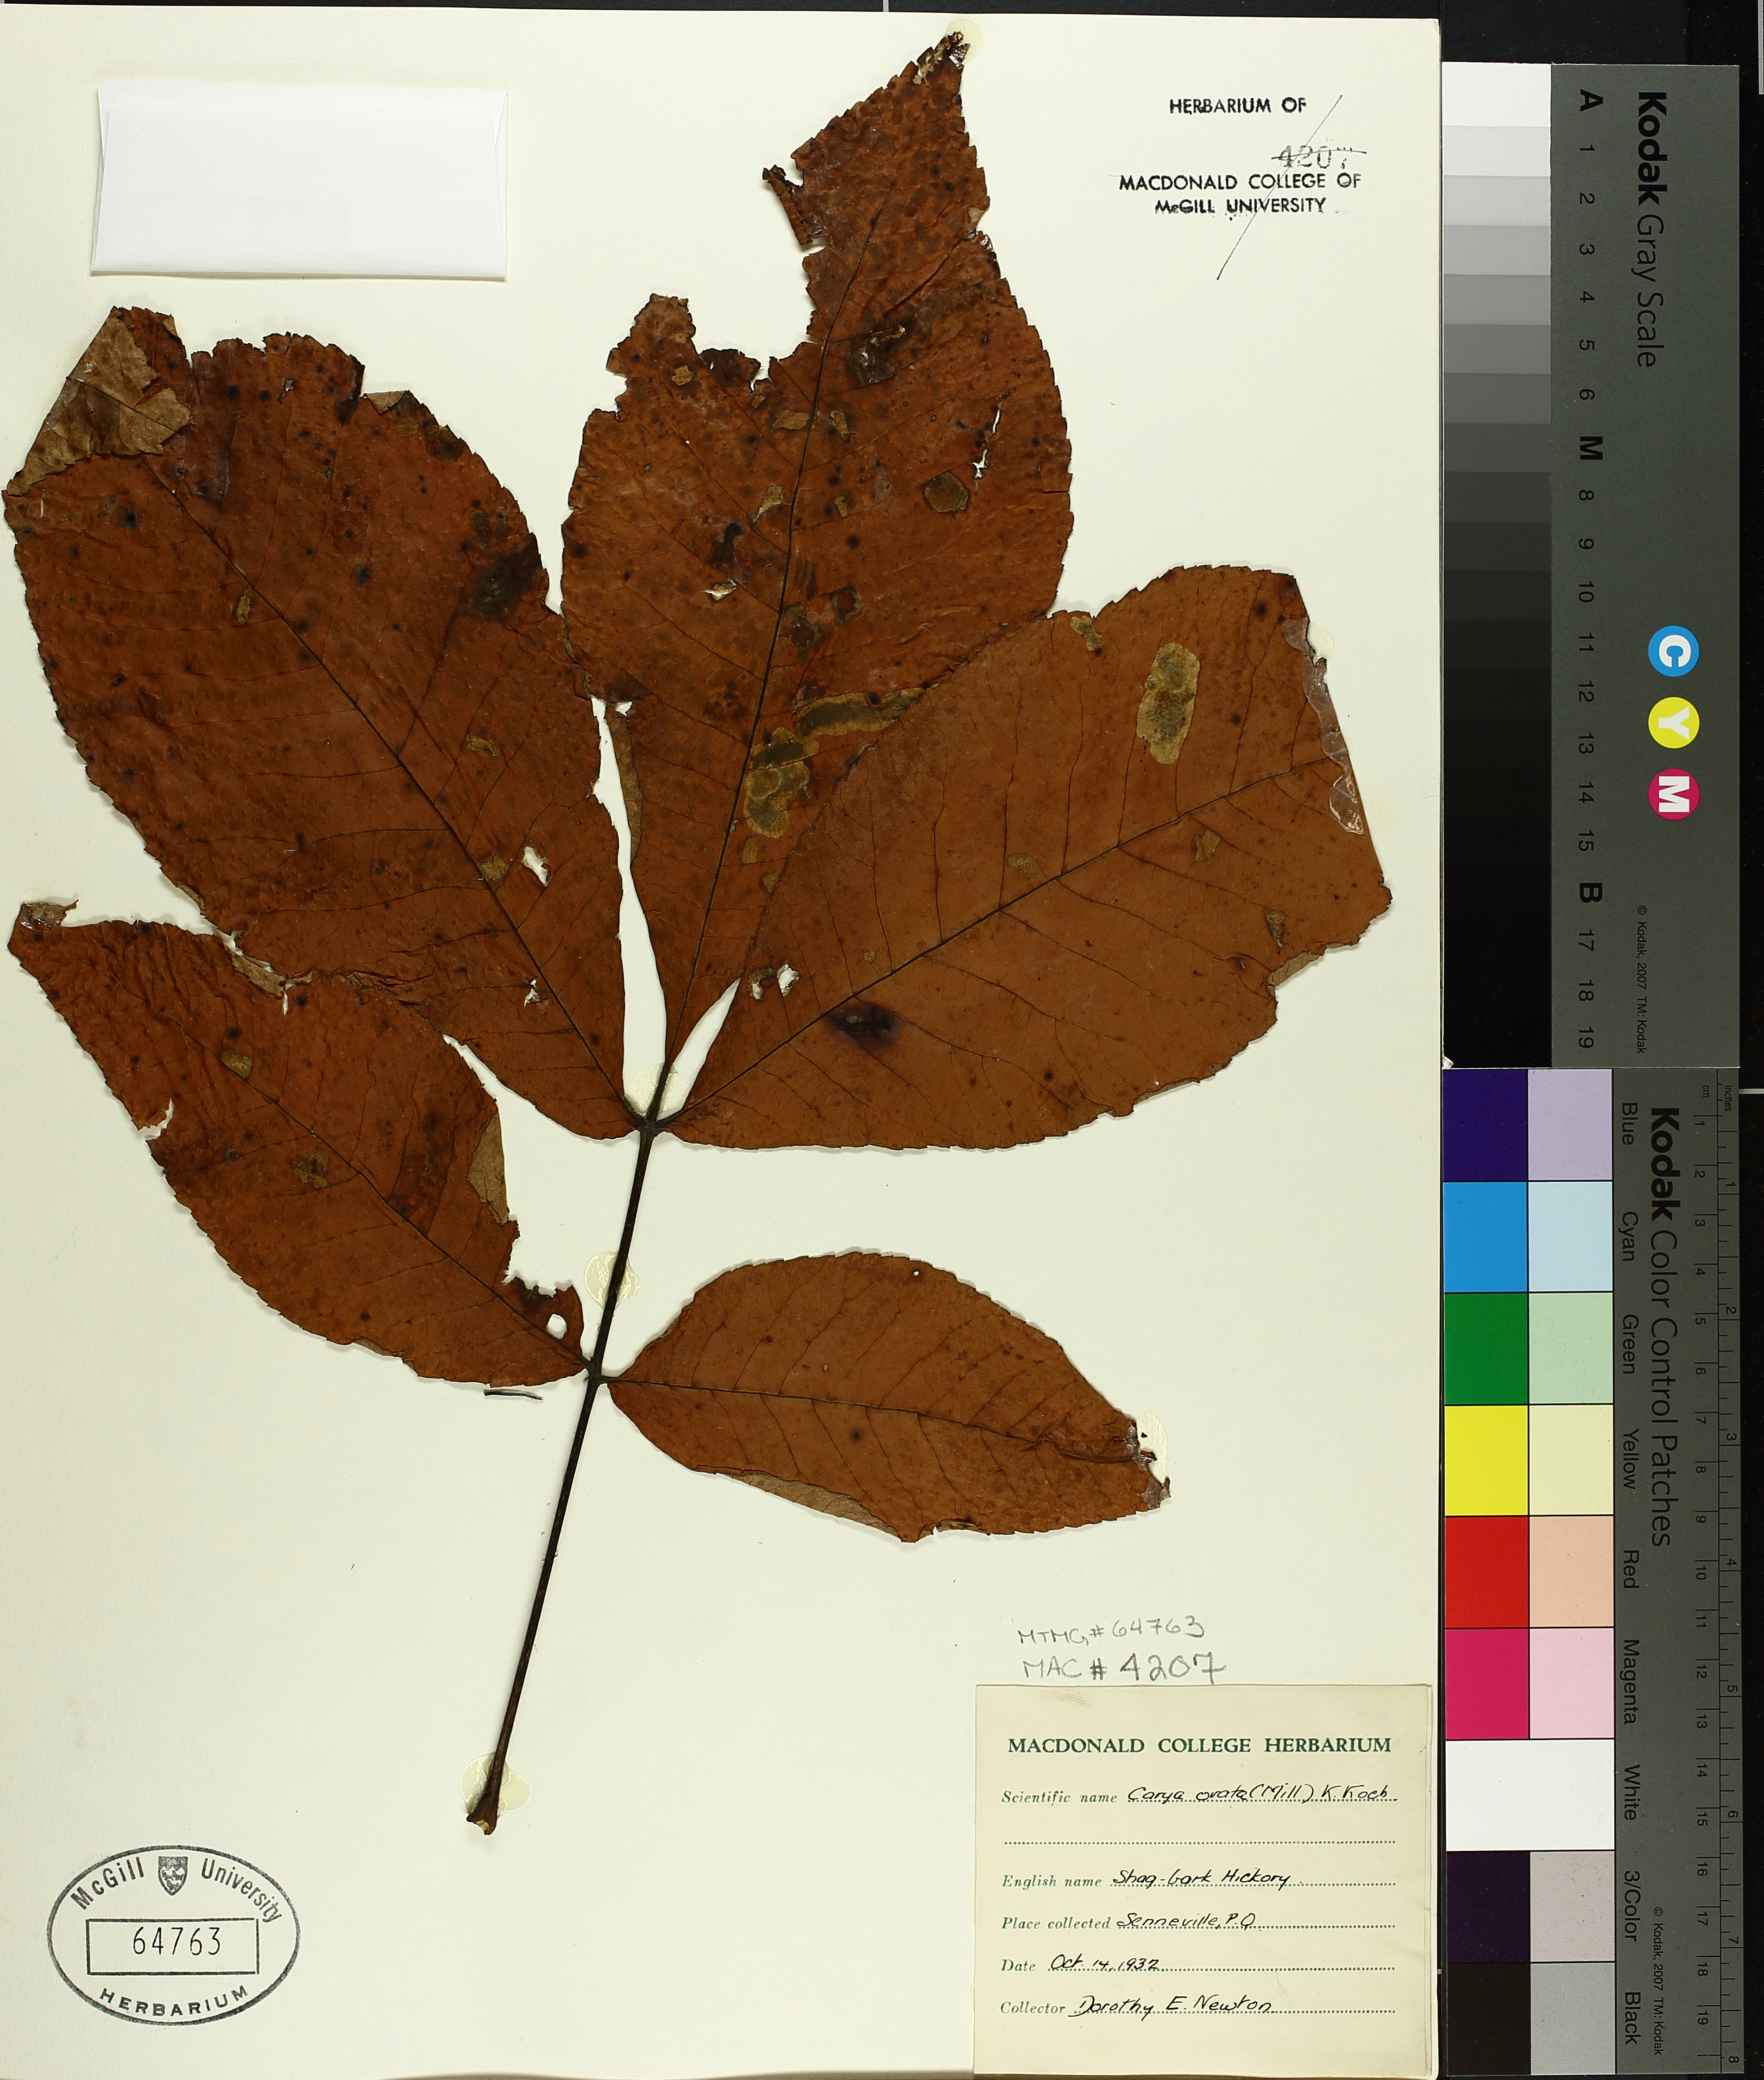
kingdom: Plantae
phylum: Tracheophyta
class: Magnoliopsida
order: Fagales
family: Juglandaceae
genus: Carya
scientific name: Carya ovata
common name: Shagbark hickory
